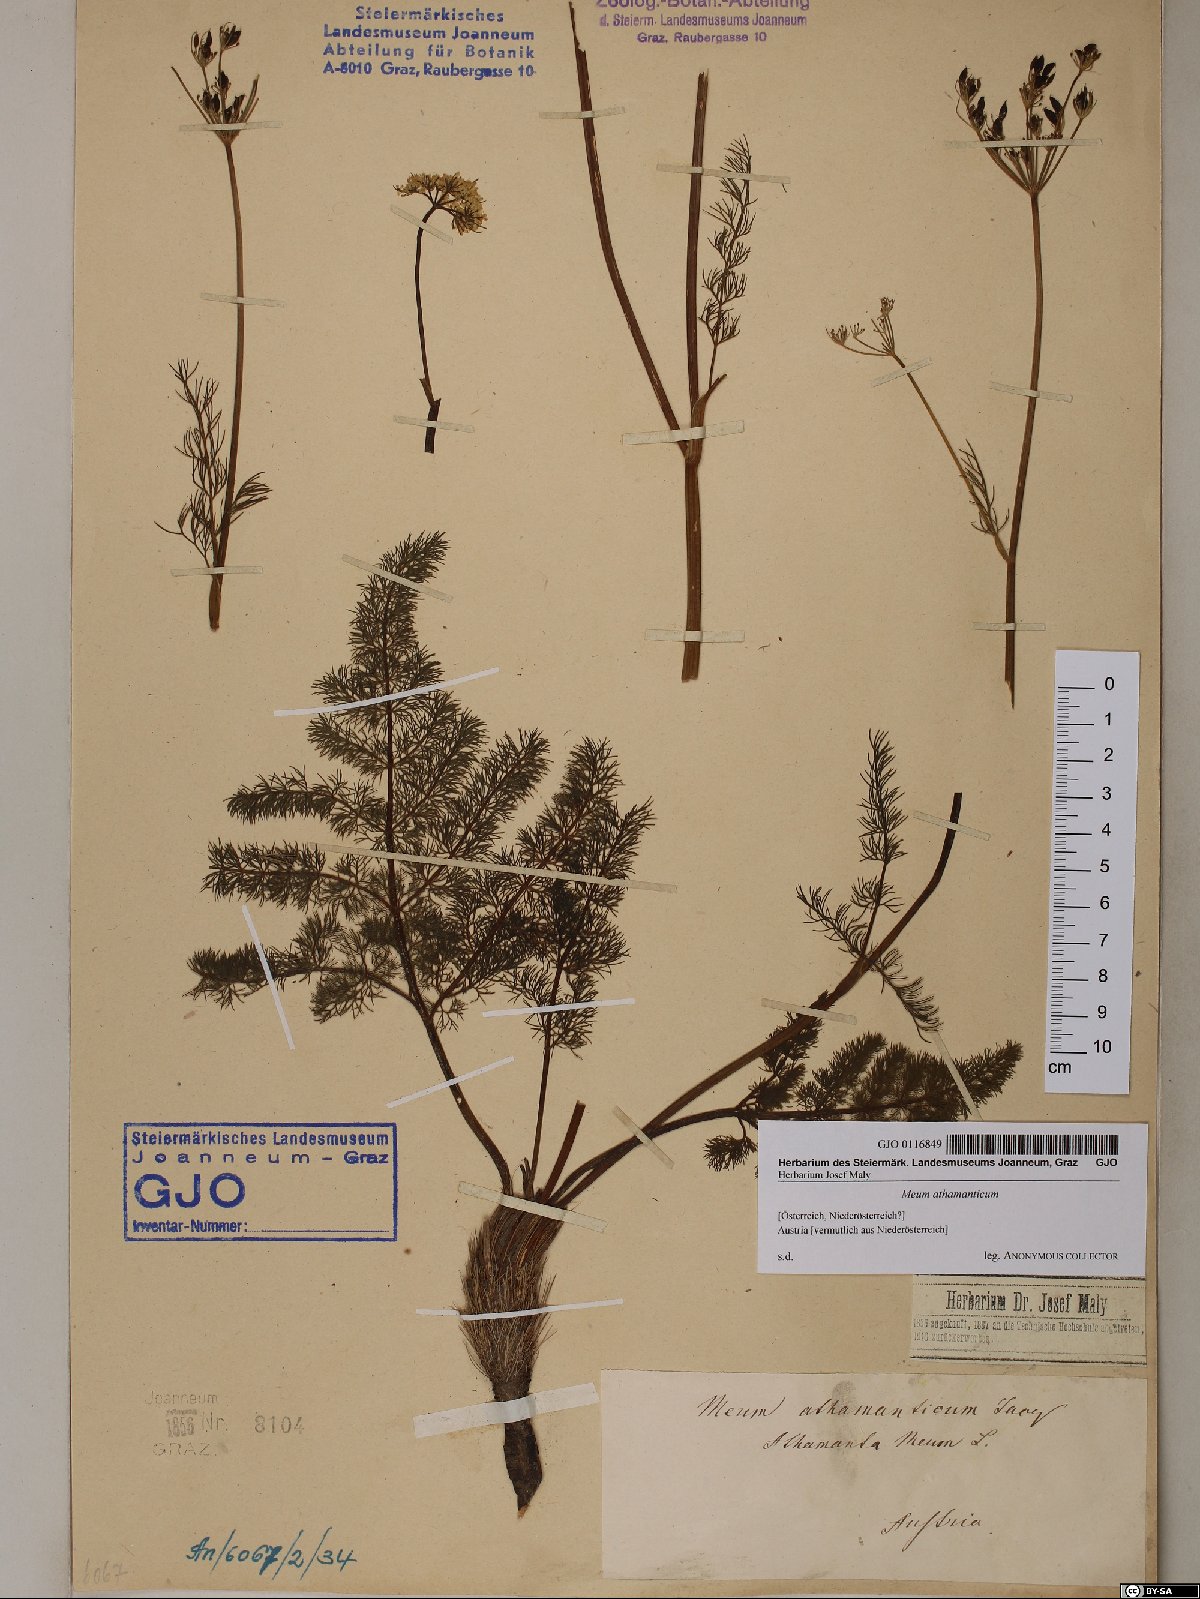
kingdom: Plantae
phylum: Tracheophyta
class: Magnoliopsida
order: Apiales
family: Apiaceae
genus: Meum
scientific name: Meum athamanticum
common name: Spignel
